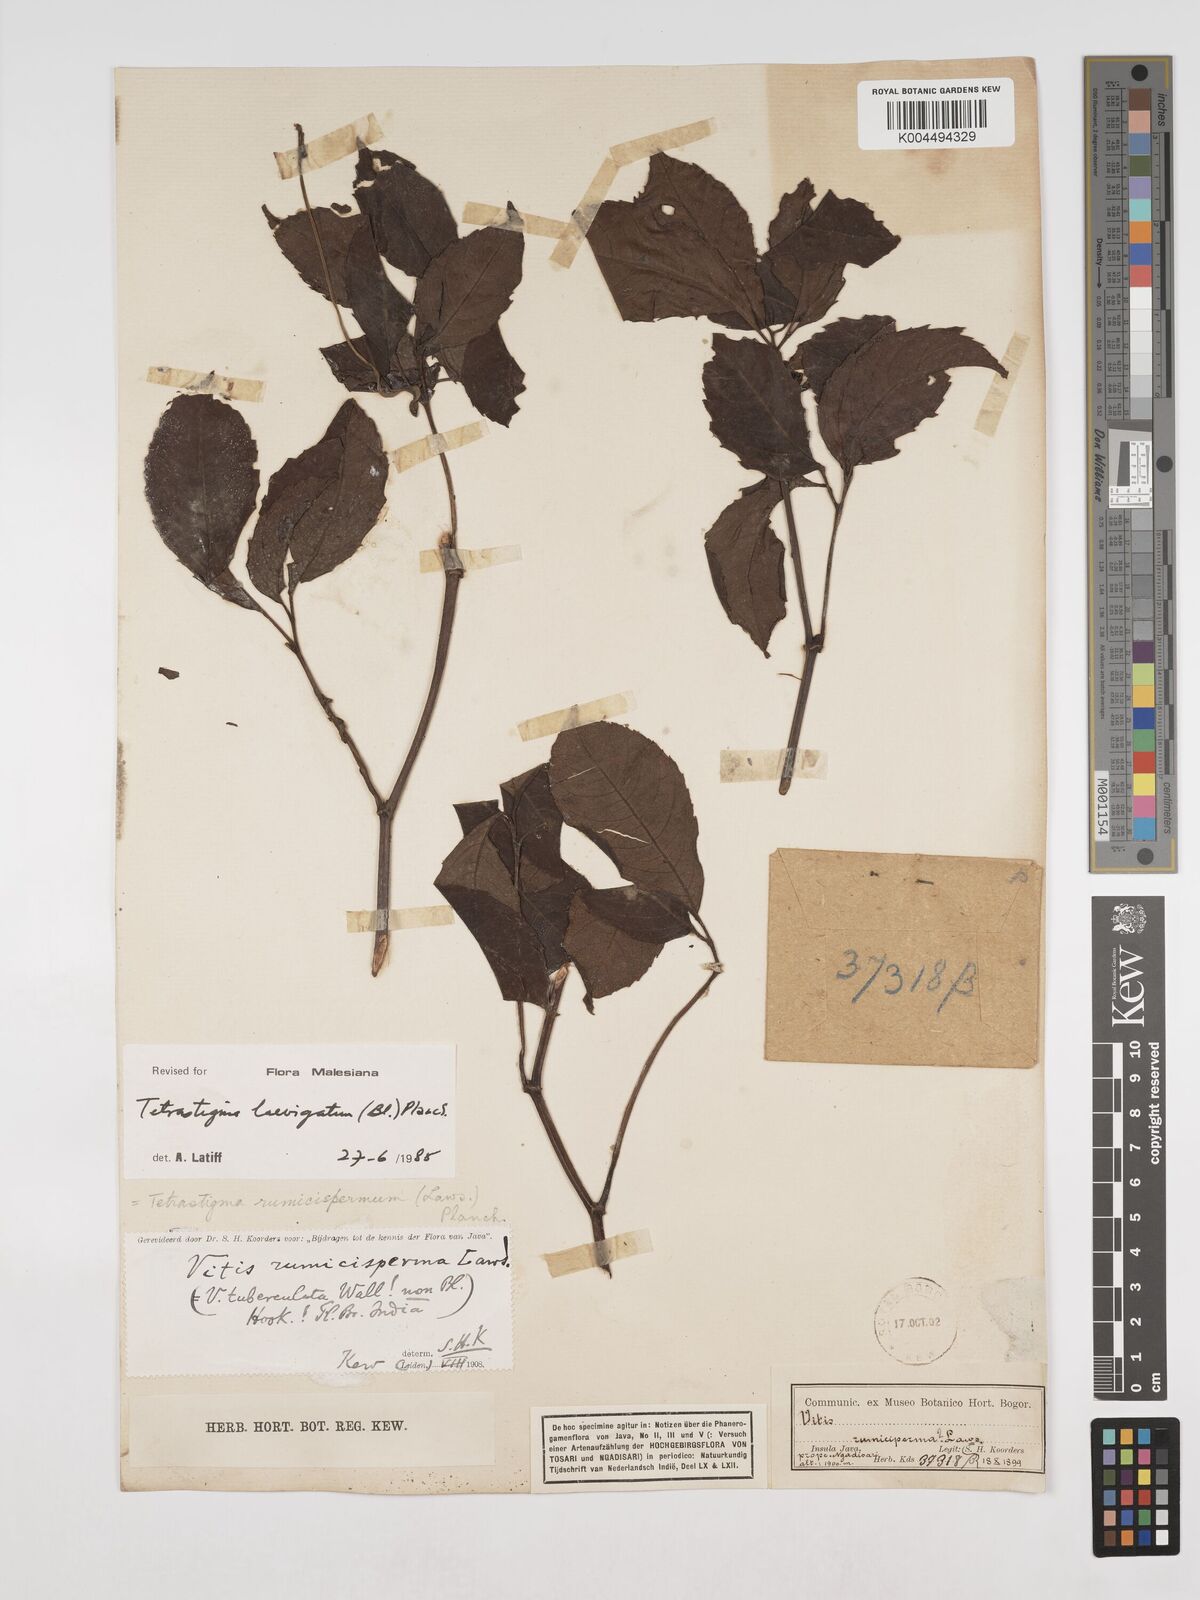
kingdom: Plantae
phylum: Tracheophyta
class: Magnoliopsida
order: Vitales
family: Vitaceae
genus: Tetrastigma
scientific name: Tetrastigma laevigatum
